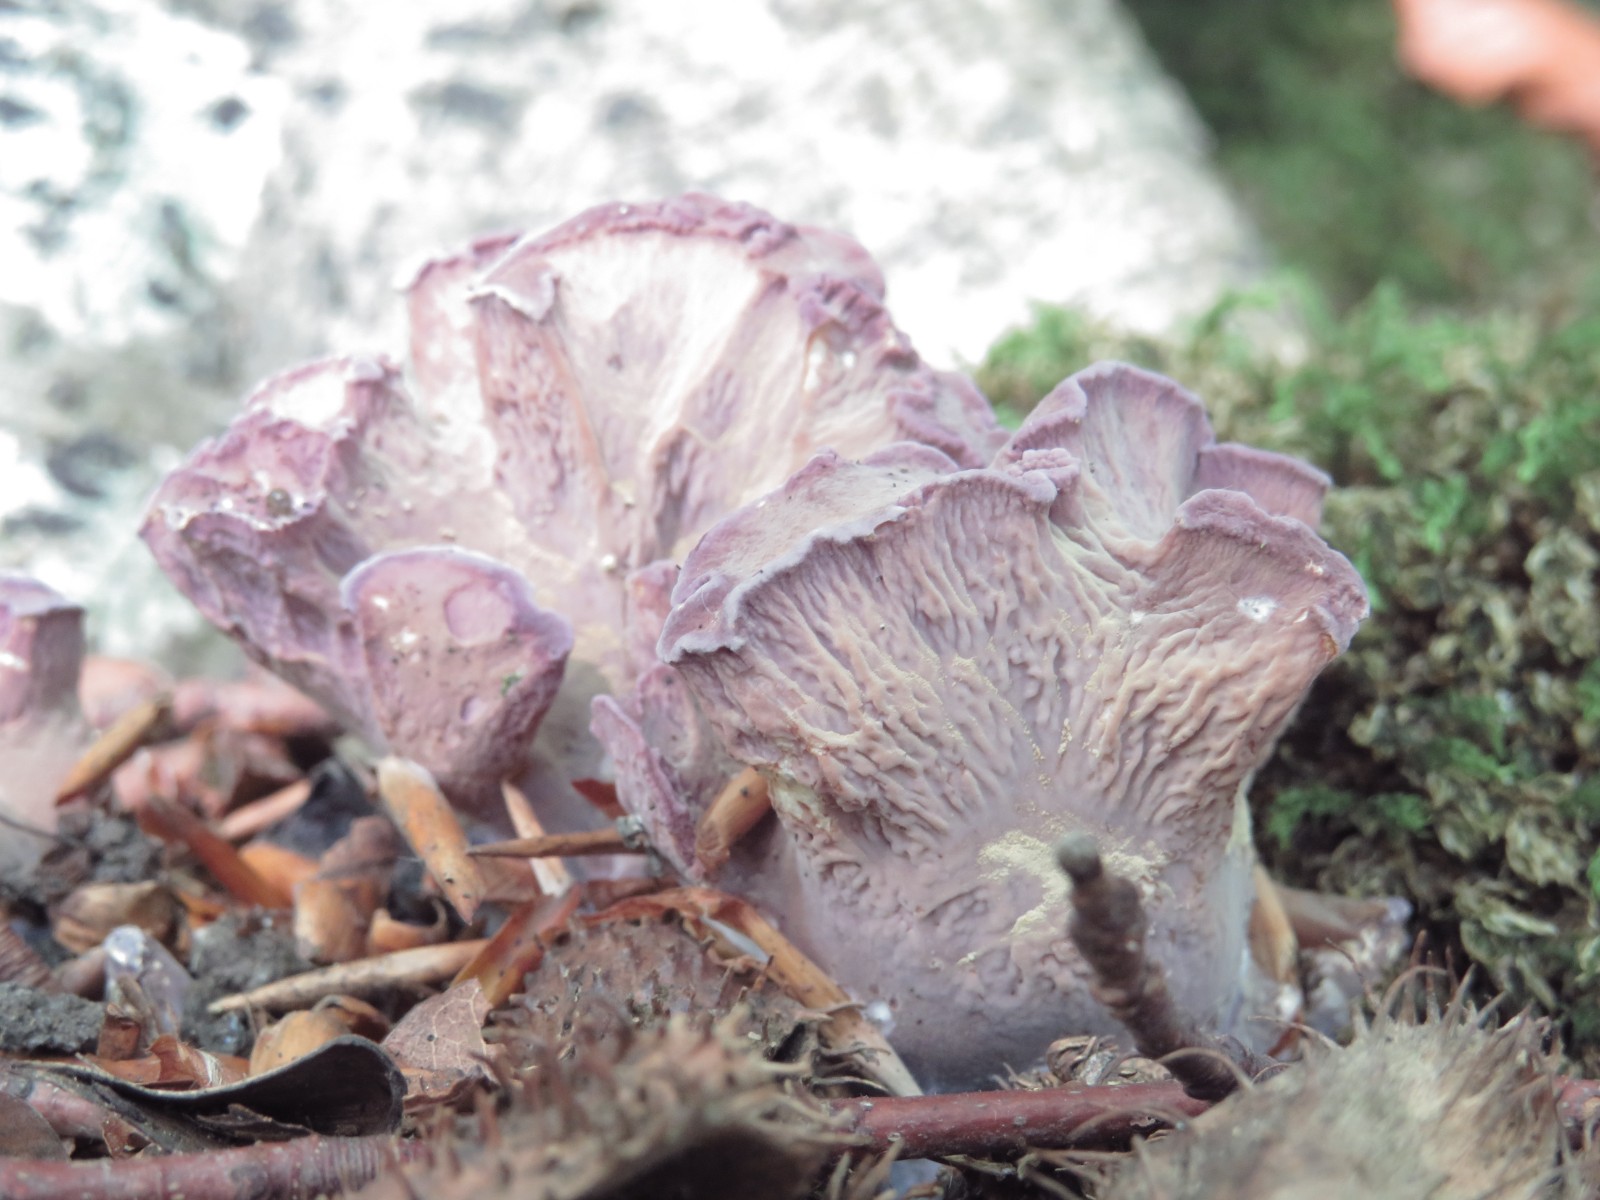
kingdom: Fungi
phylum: Basidiomycota
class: Agaricomycetes
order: Gomphales
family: Gomphaceae
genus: Gomphus
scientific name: Gomphus clavatus
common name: køllekantarel
